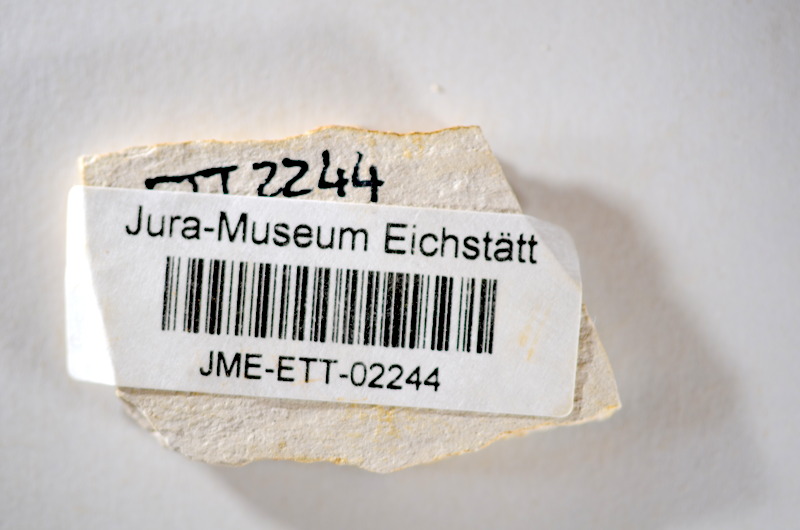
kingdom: Animalia
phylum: Chordata
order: Salmoniformes
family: Orthogonikleithridae
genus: Orthogonikleithrus
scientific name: Orthogonikleithrus hoelli
